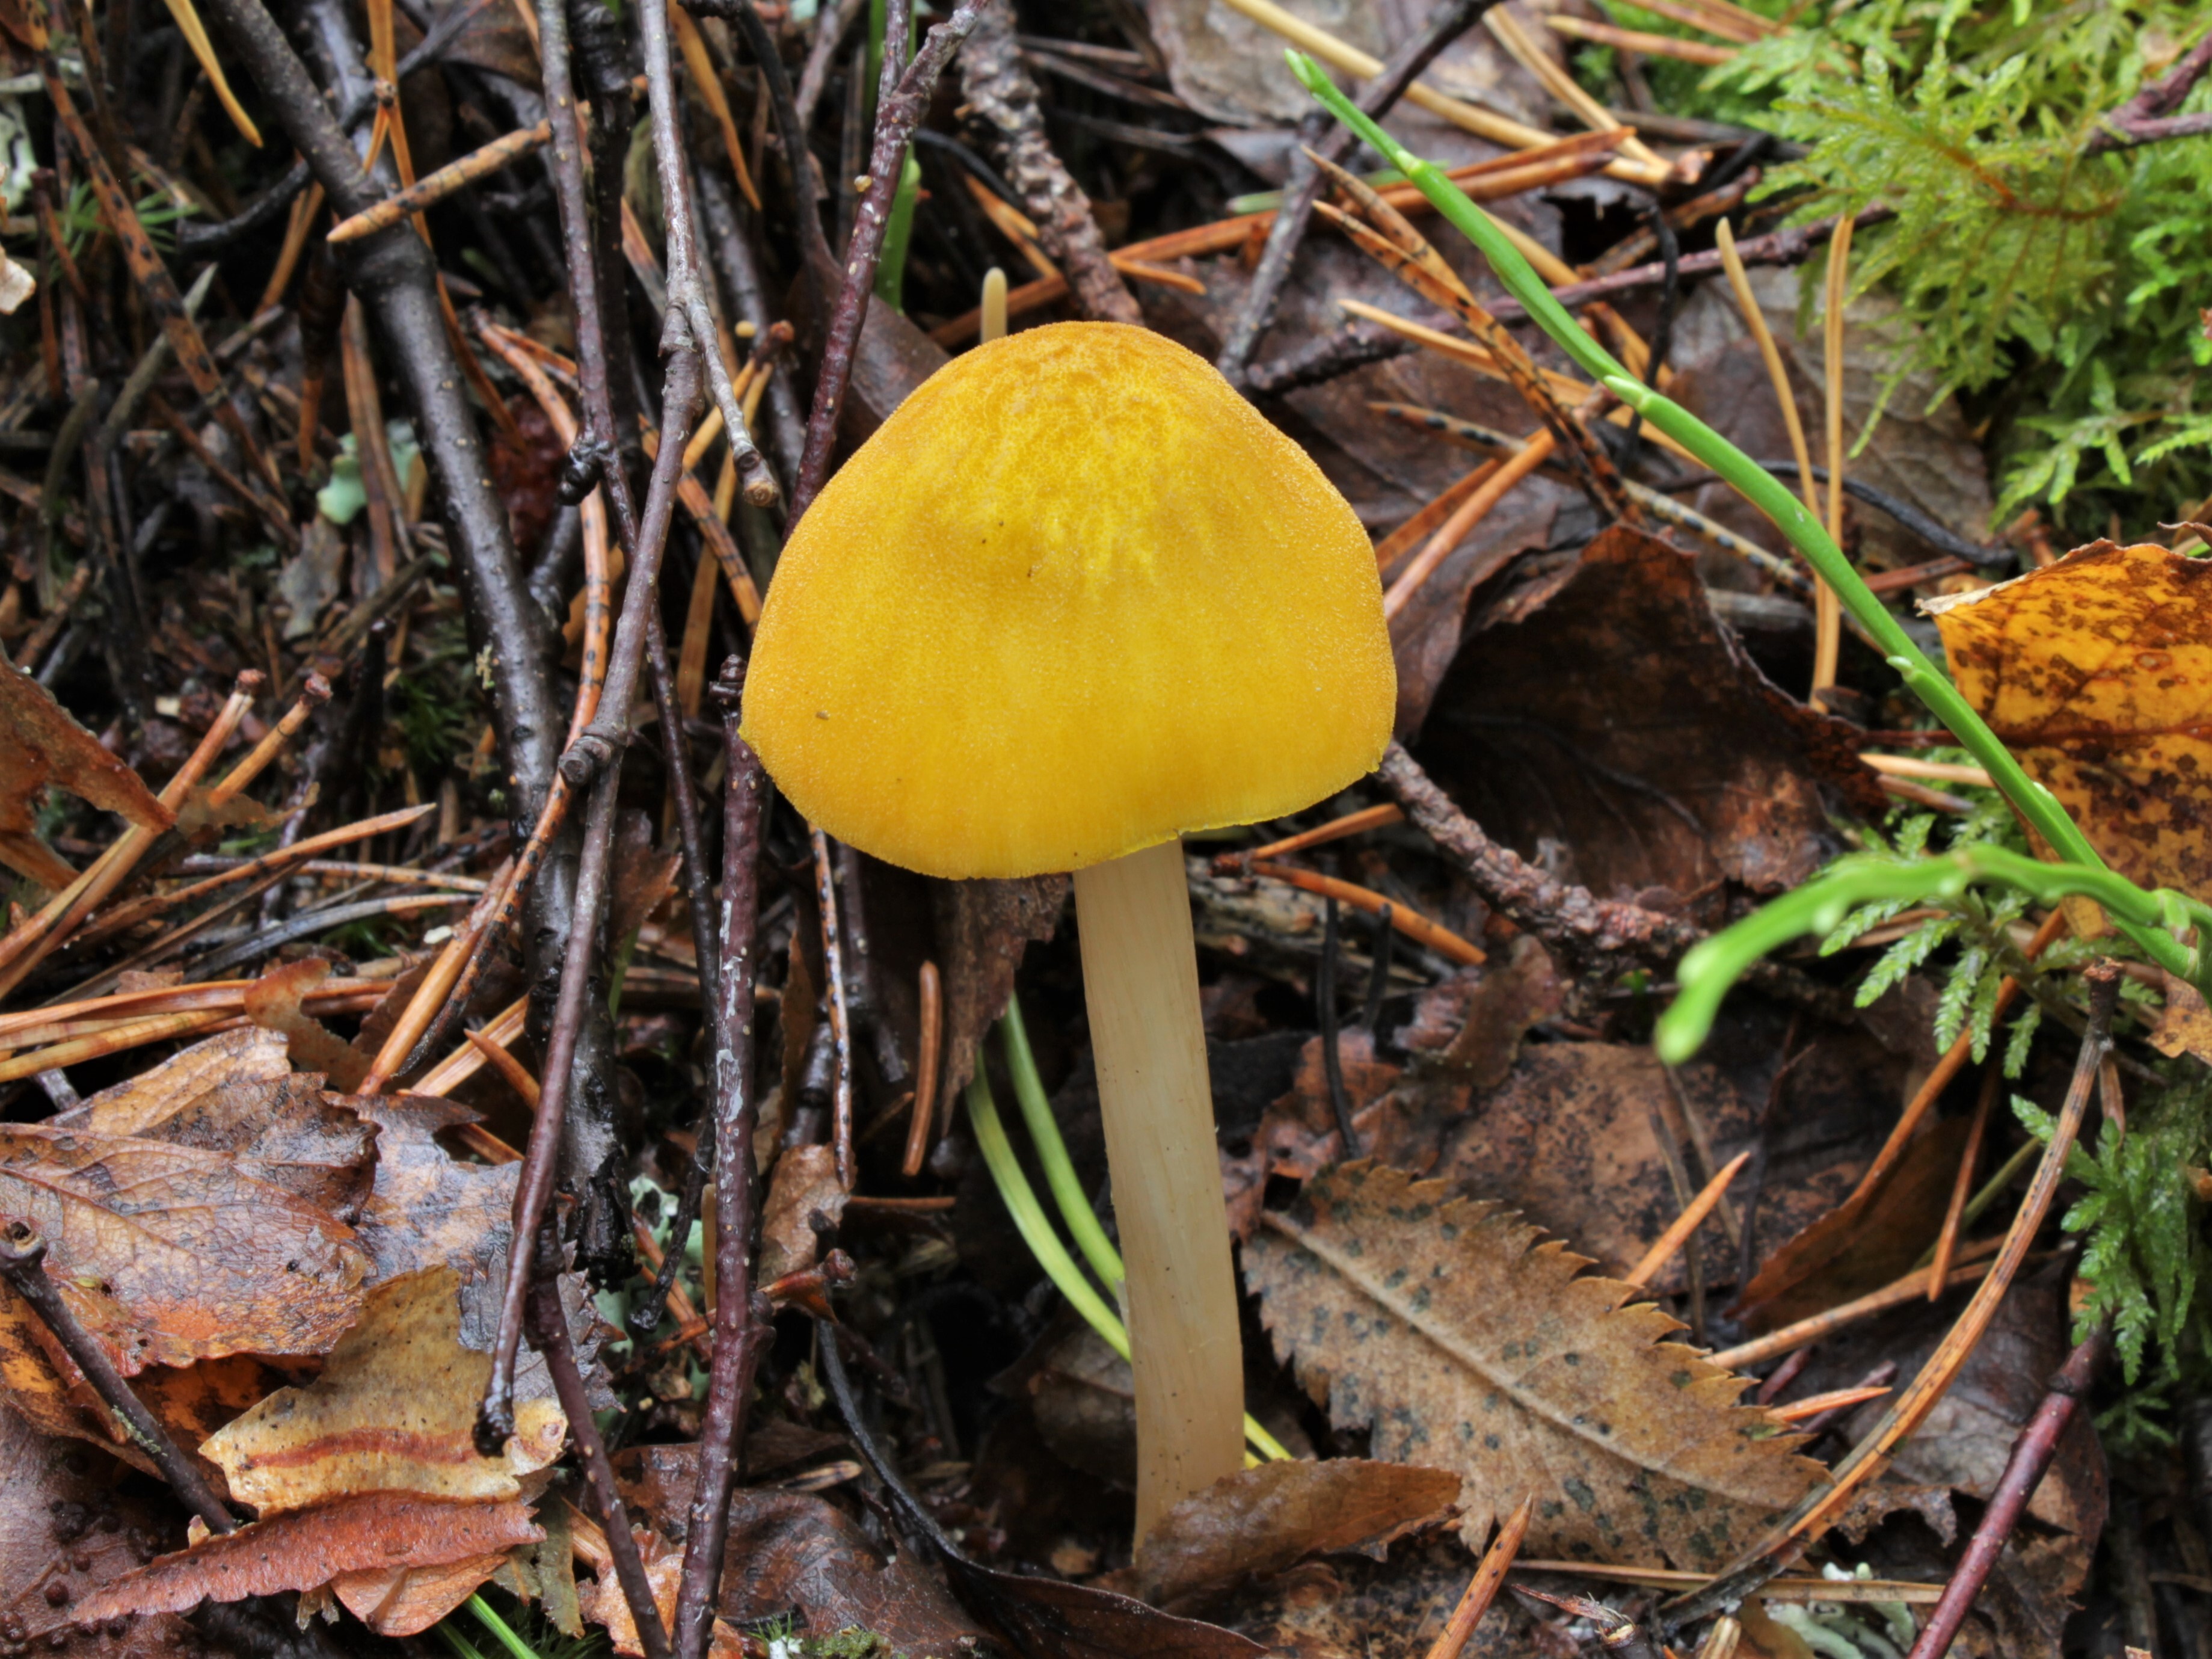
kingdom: Fungi
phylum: Basidiomycota
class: Agaricomycetes
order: Agaricales
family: Pluteaceae
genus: Pluteus
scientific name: Pluteus leoninus
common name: Lion shield
